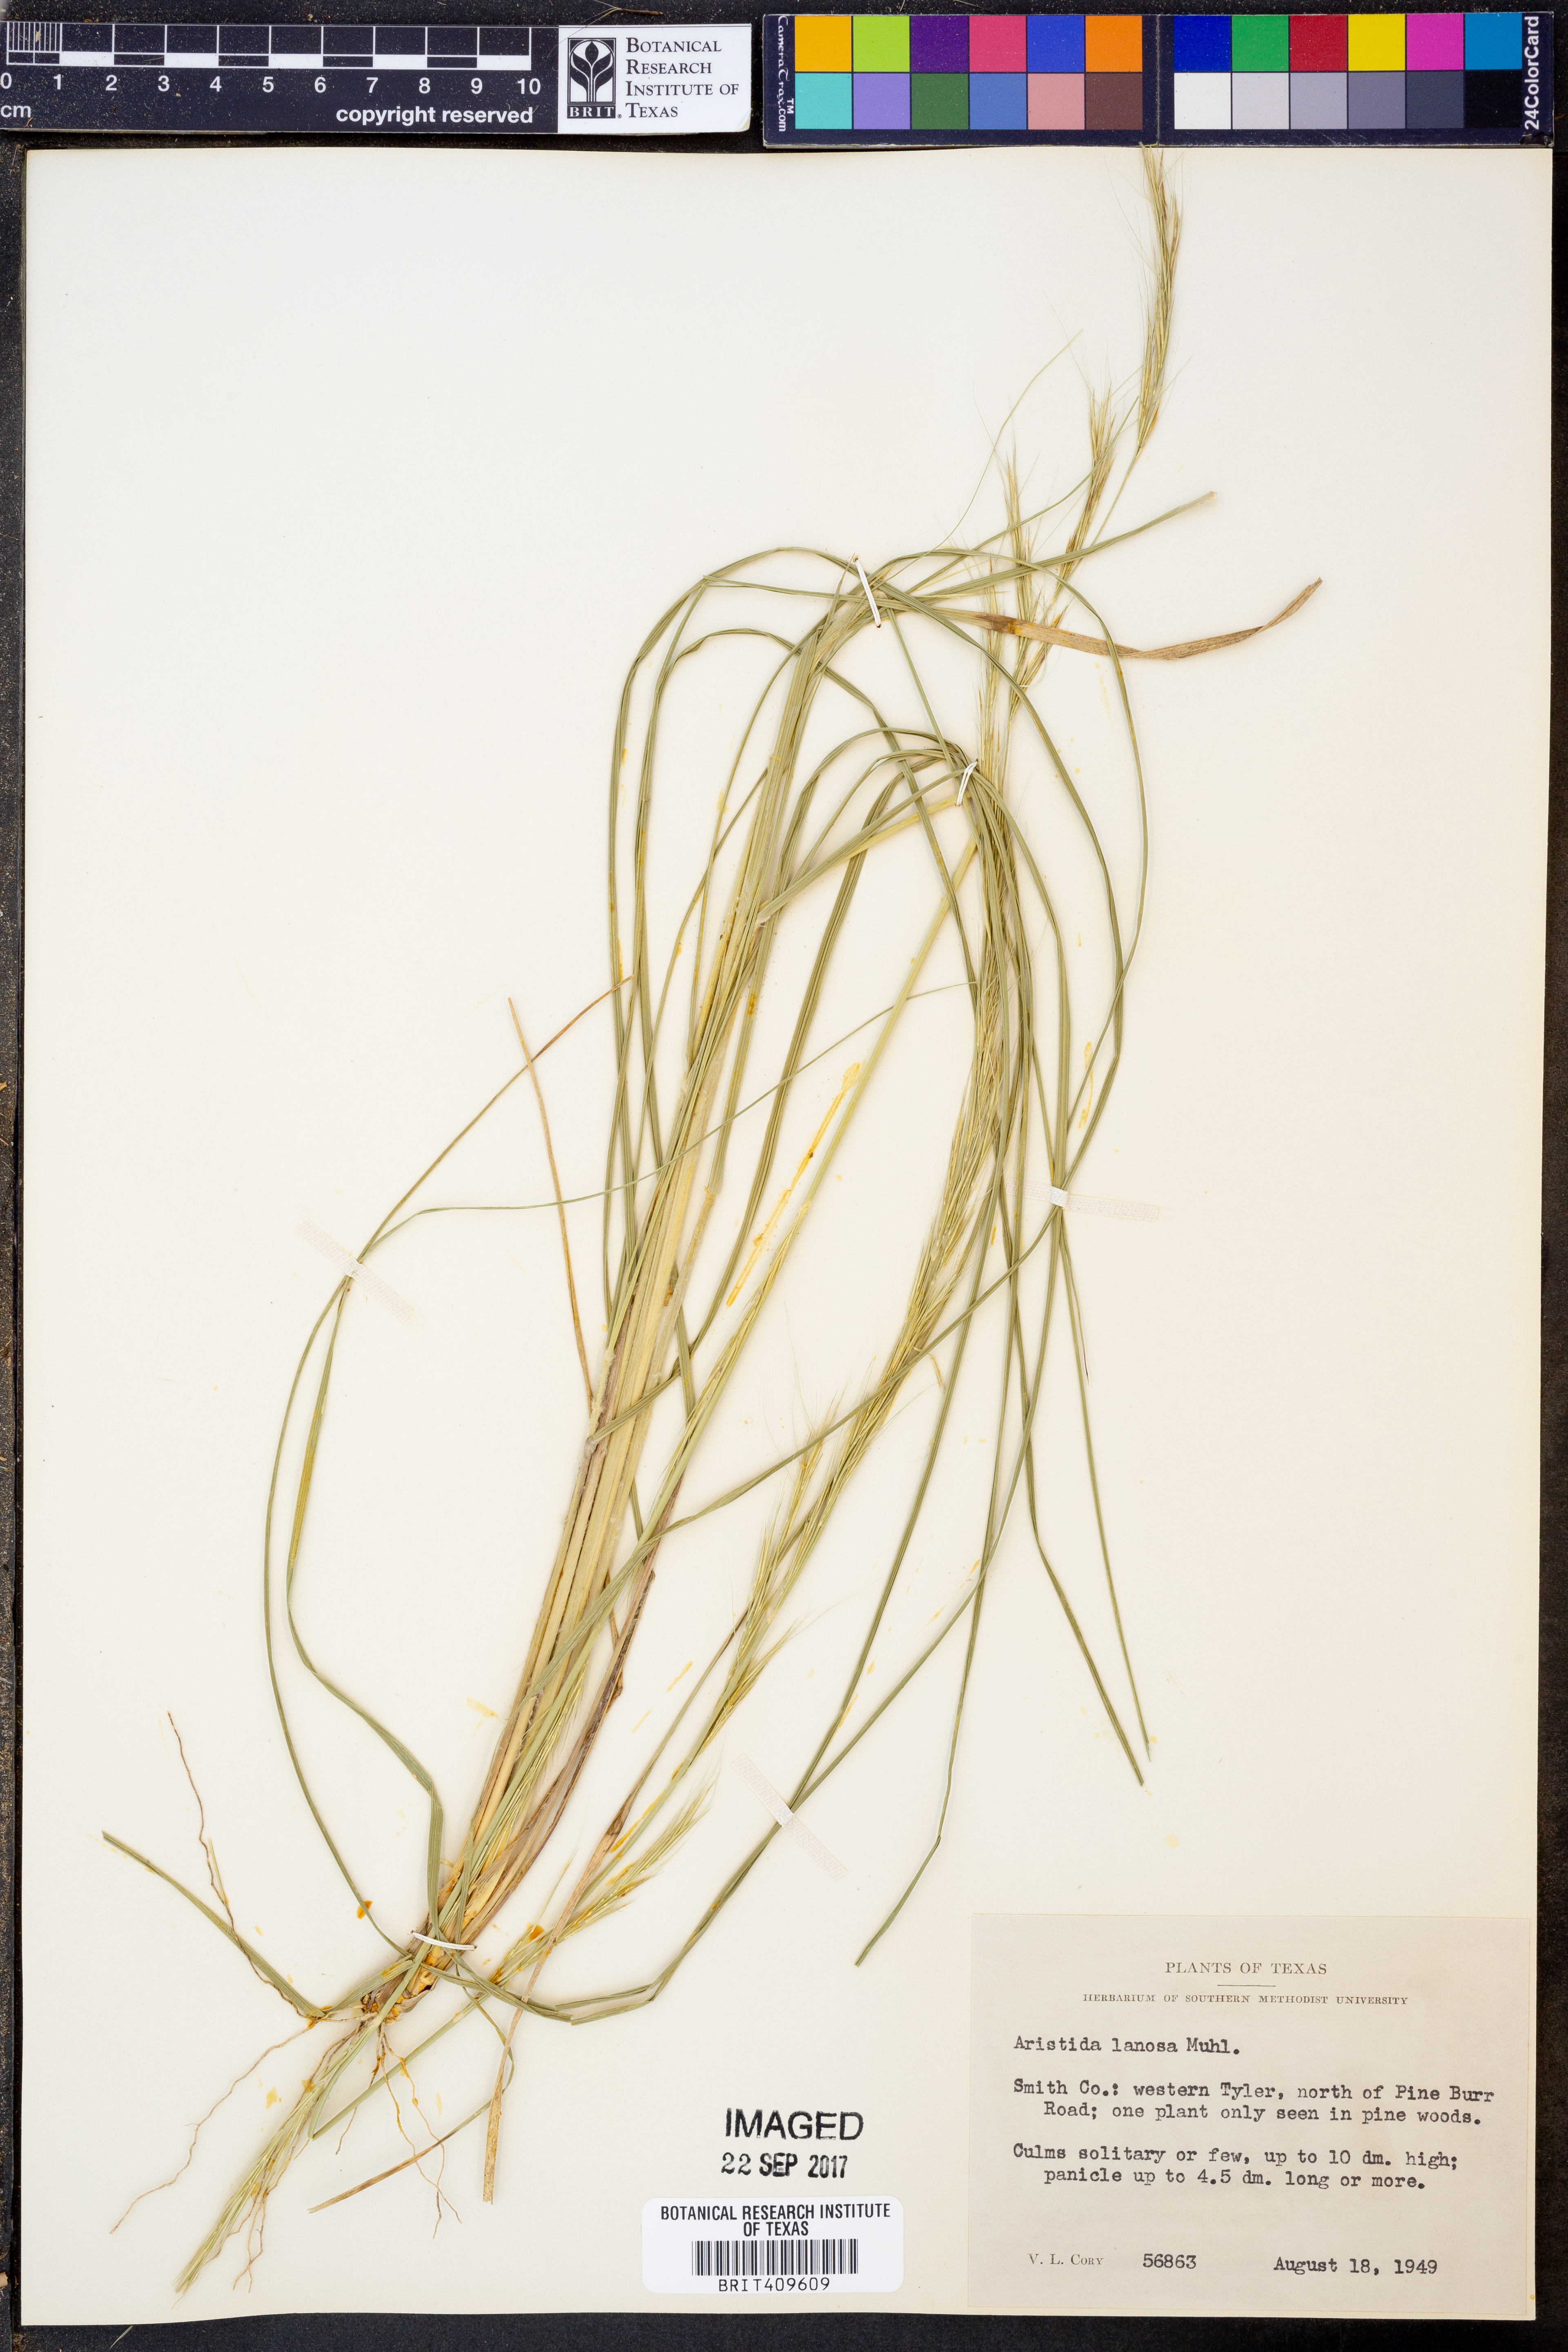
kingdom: Plantae
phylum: Tracheophyta
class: Liliopsida
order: Poales
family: Poaceae
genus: Aristida
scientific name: Aristida lanosa
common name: Woolly three-awn
